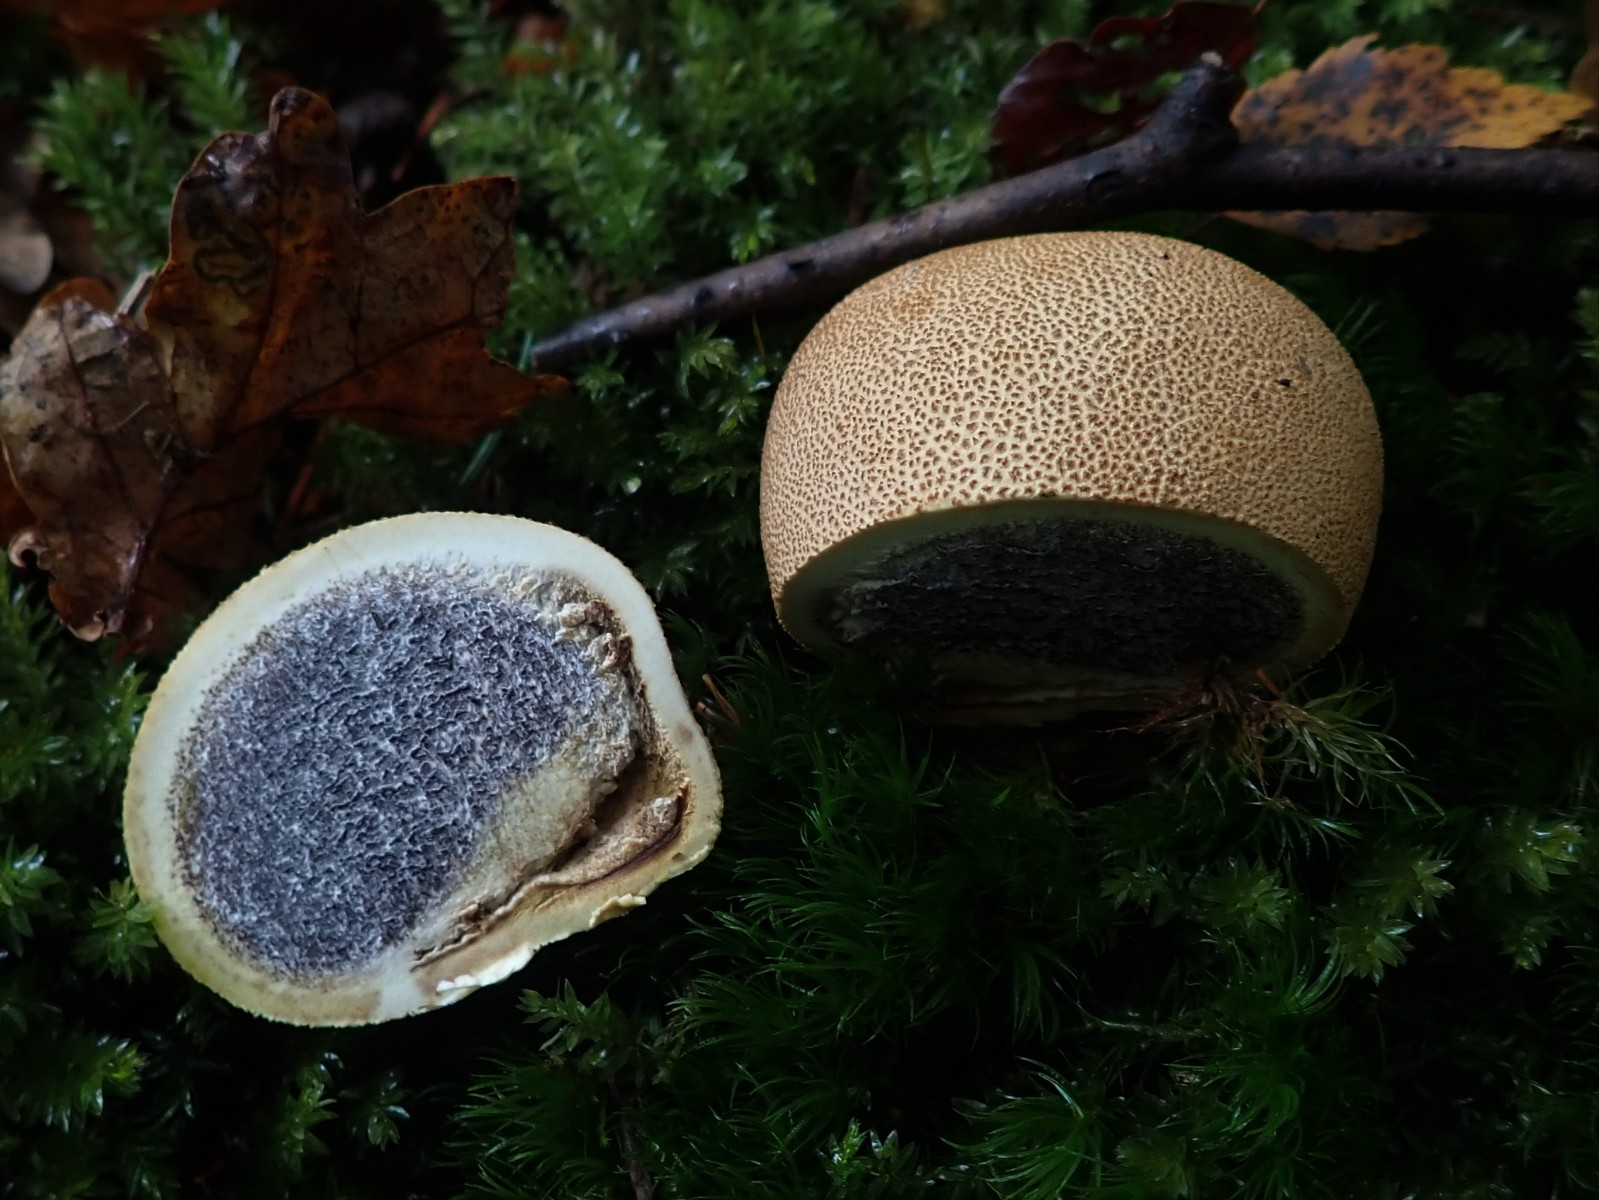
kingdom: Fungi
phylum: Basidiomycota
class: Agaricomycetes
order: Boletales
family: Sclerodermataceae
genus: Scleroderma
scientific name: Scleroderma citrinum
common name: almindelig bruskbold
